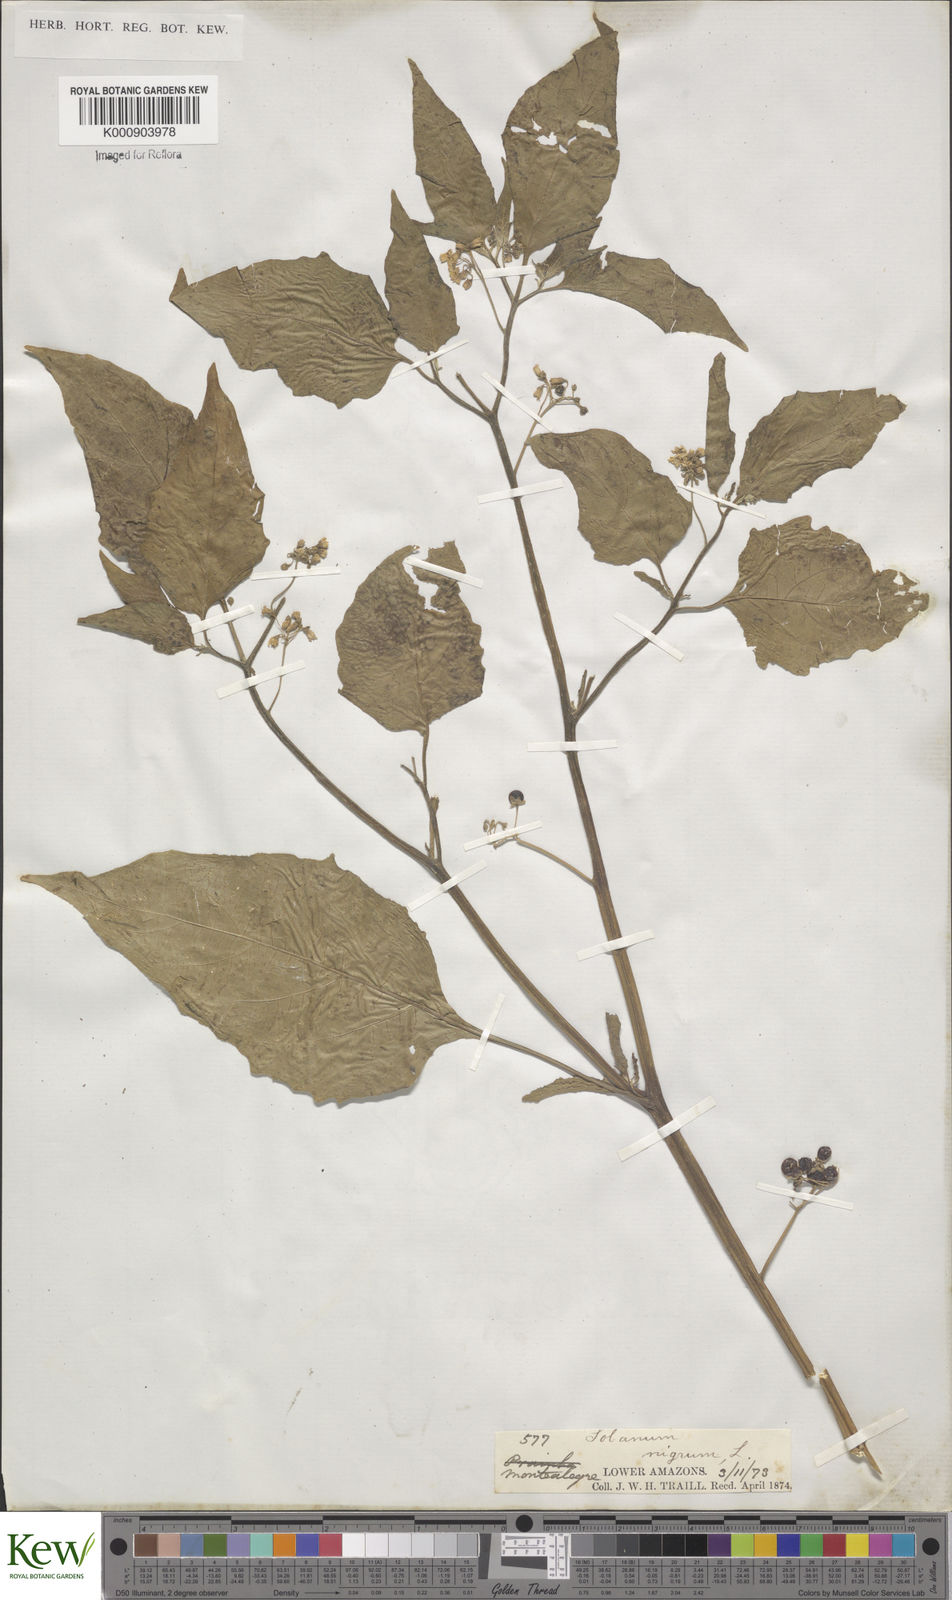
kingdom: Plantae
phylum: Tracheophyta
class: Magnoliopsida
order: Solanales
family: Solanaceae
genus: Solanum
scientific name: Solanum nigrum
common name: Black nightshade
